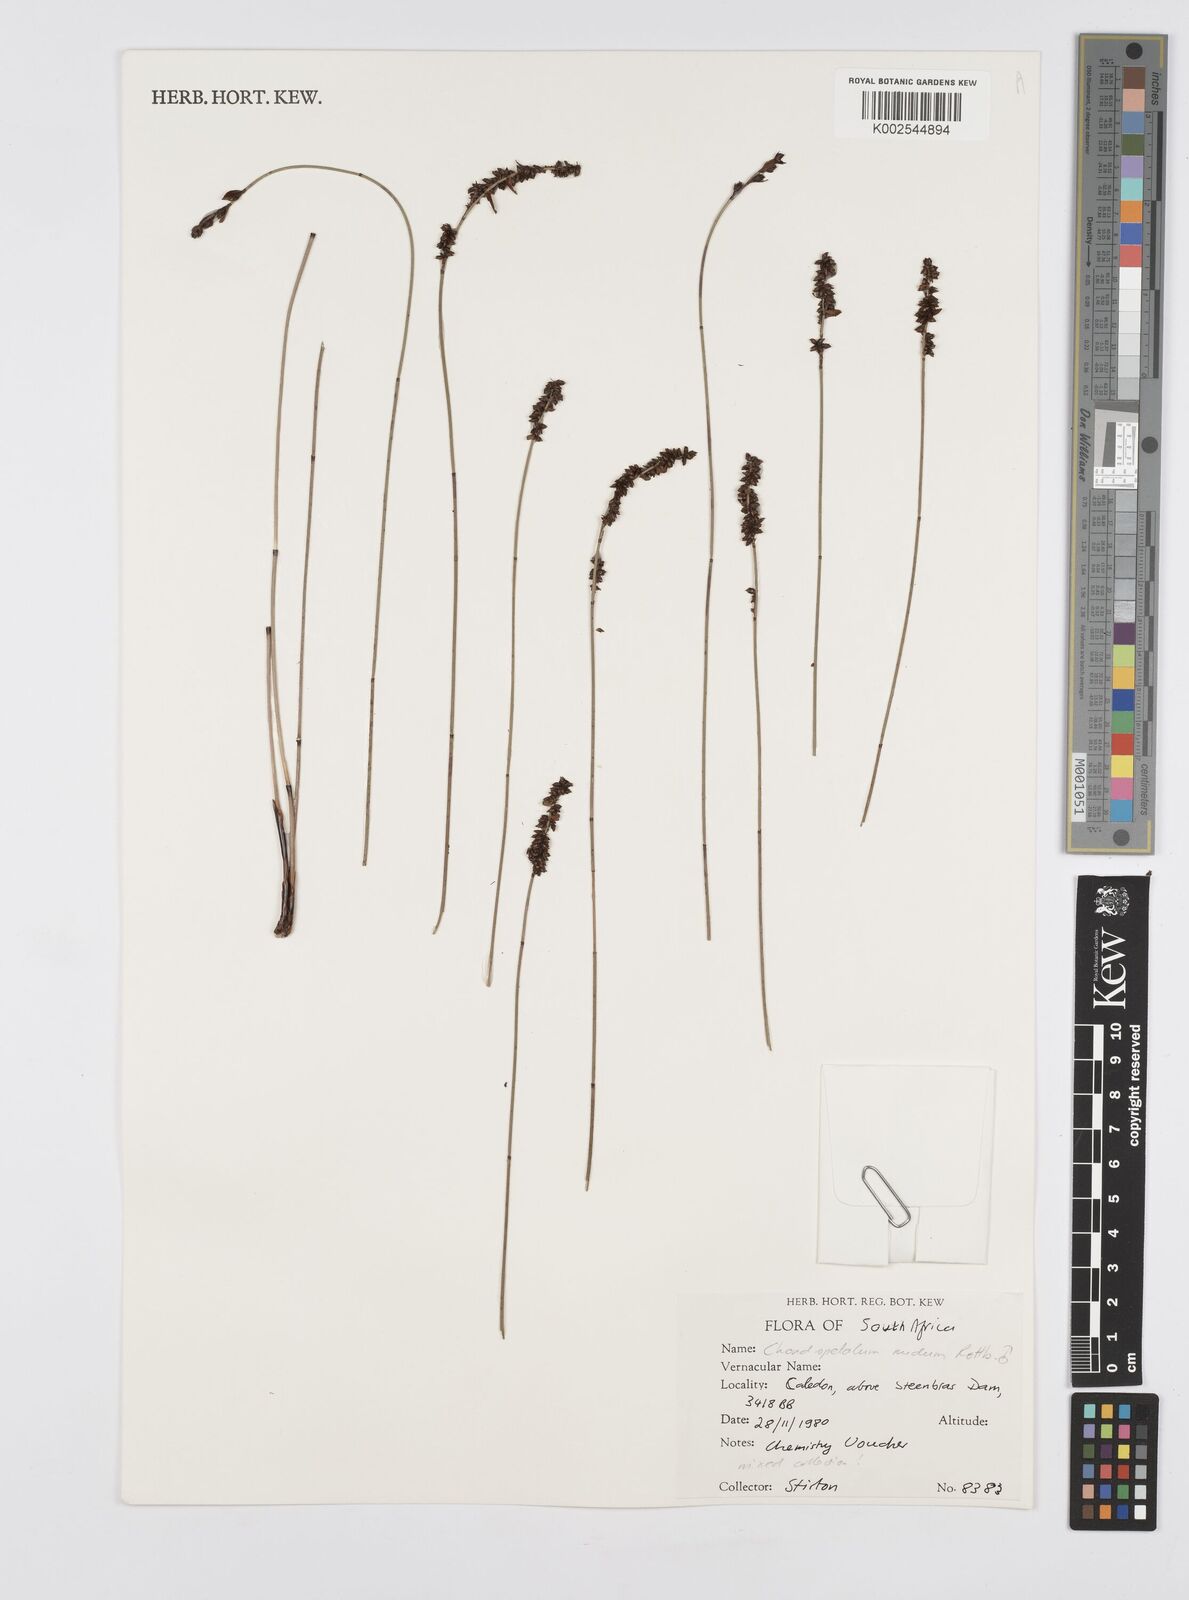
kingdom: Plantae
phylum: Tracheophyta
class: Liliopsida
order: Poales
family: Restionaceae
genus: Elegia
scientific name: Elegia nuda
